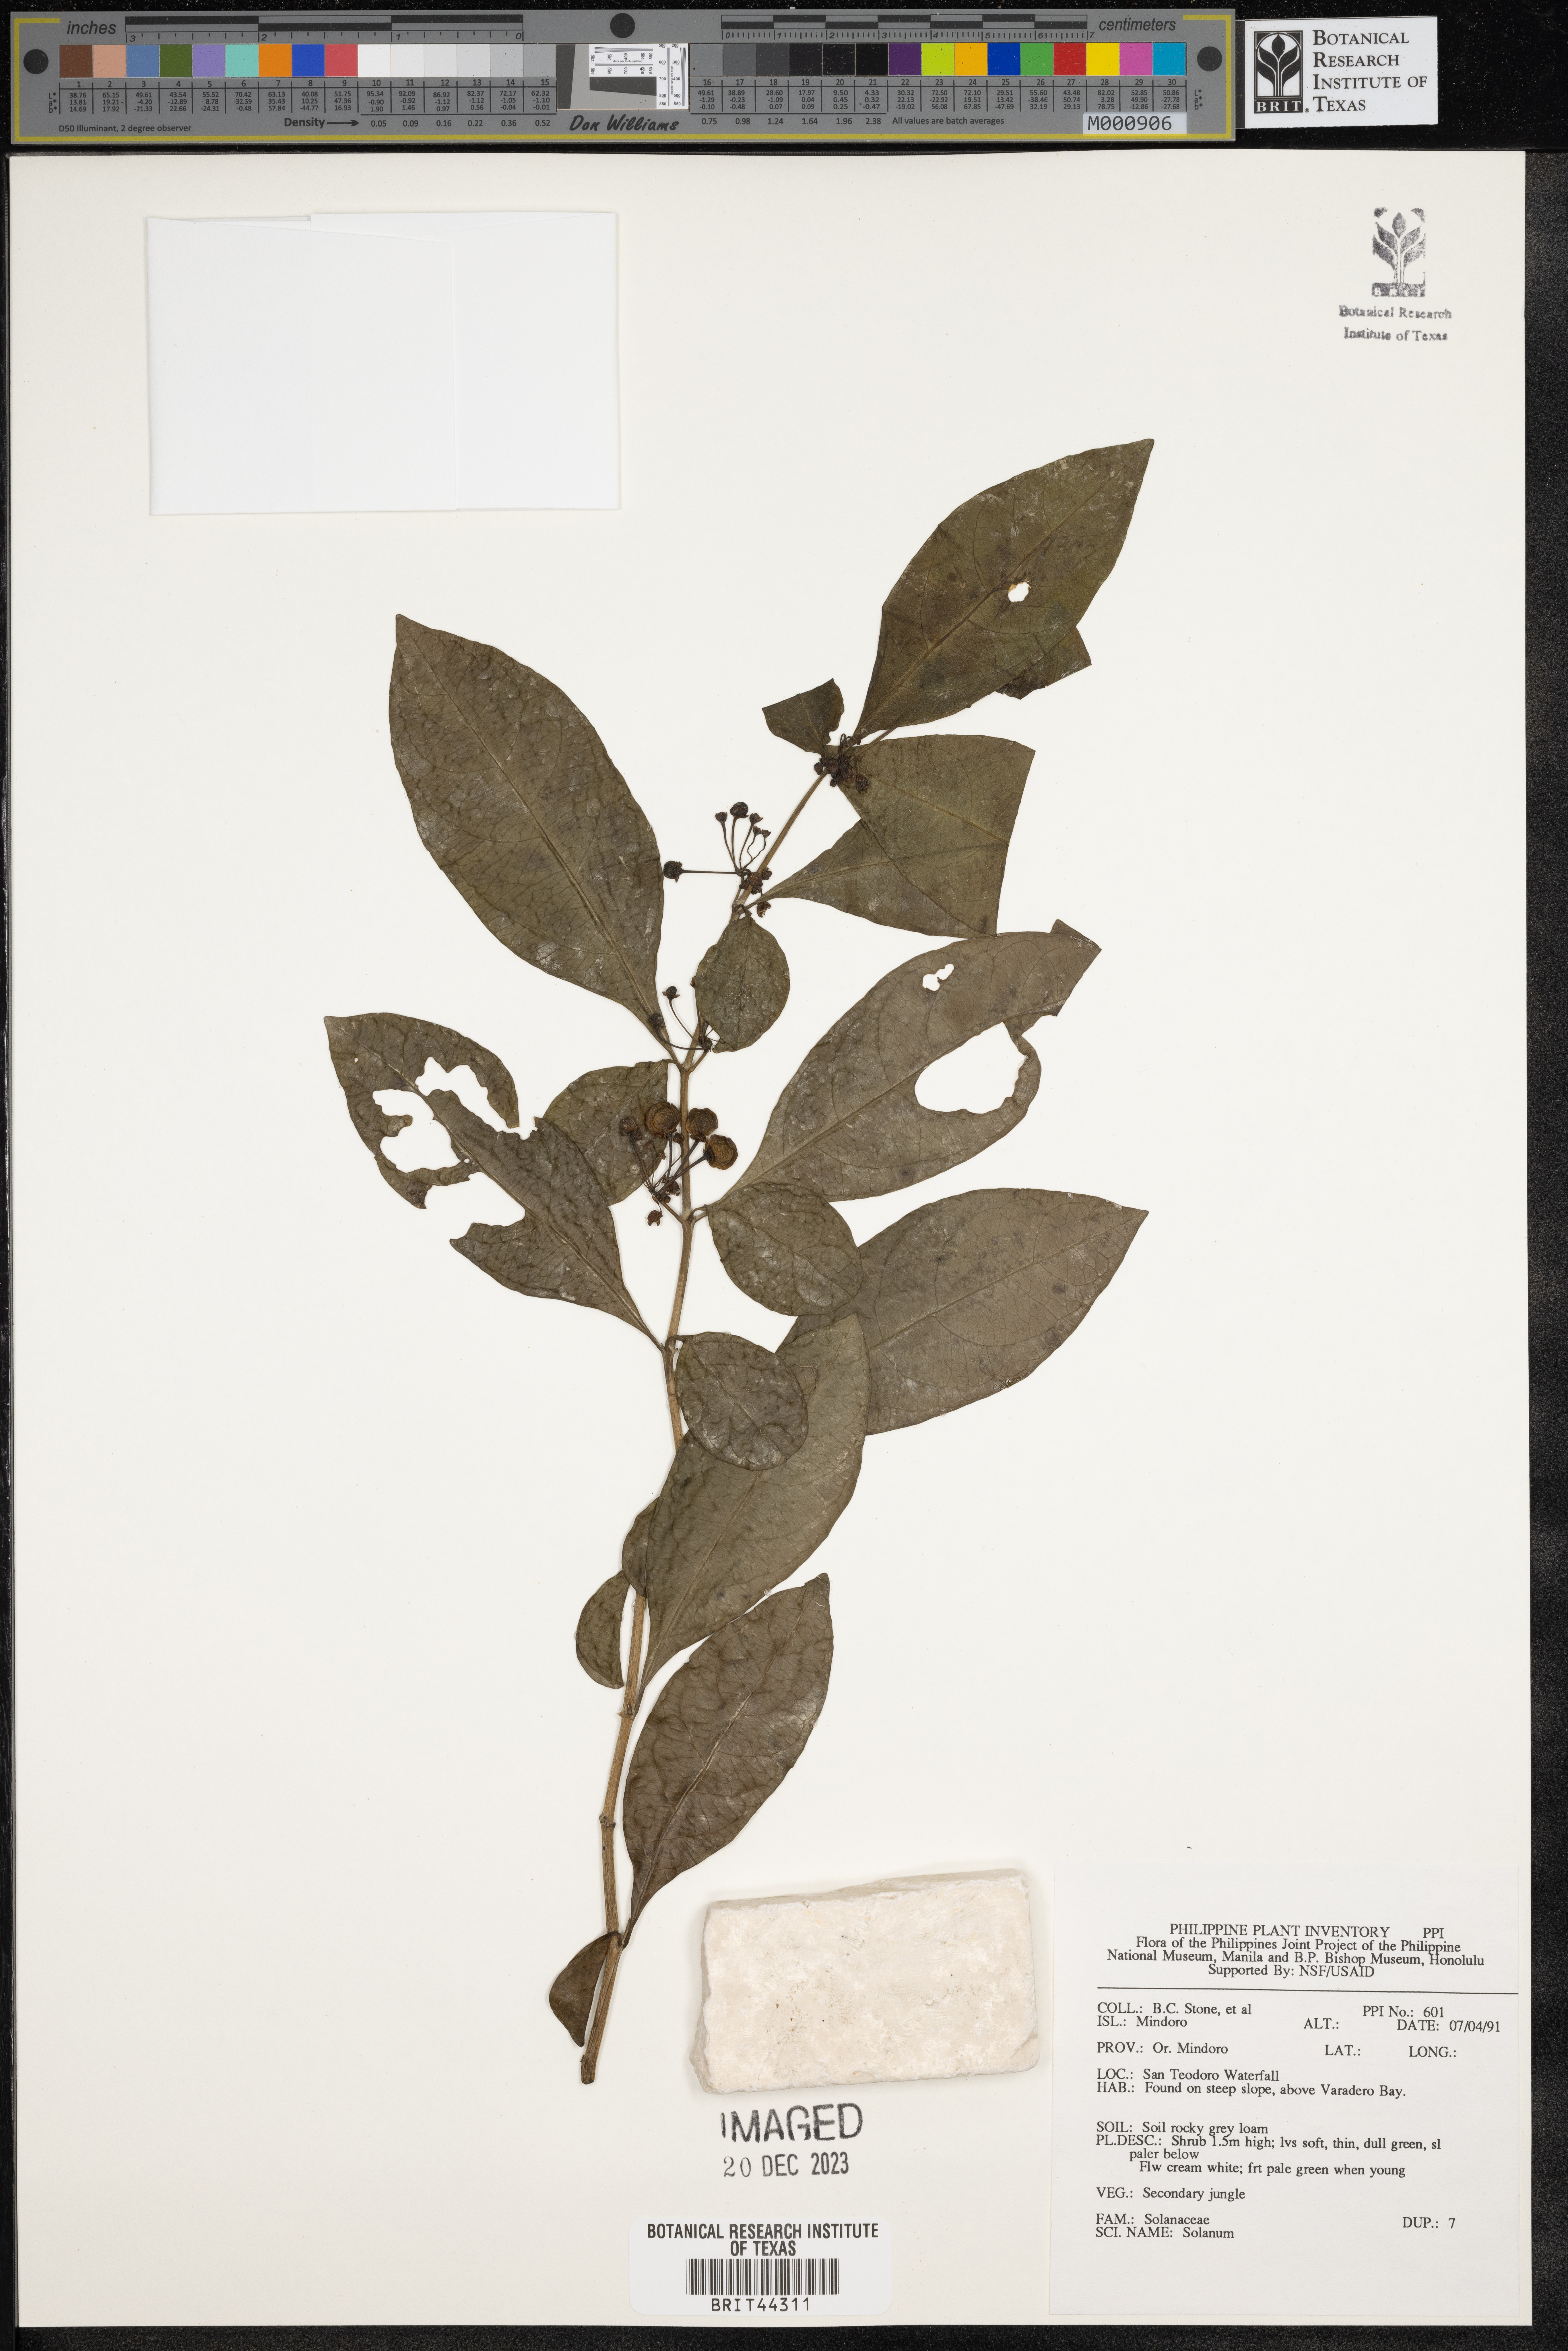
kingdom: Plantae
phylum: Tracheophyta
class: Magnoliopsida
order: Solanales
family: Solanaceae
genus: Solanum
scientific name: Solanum
